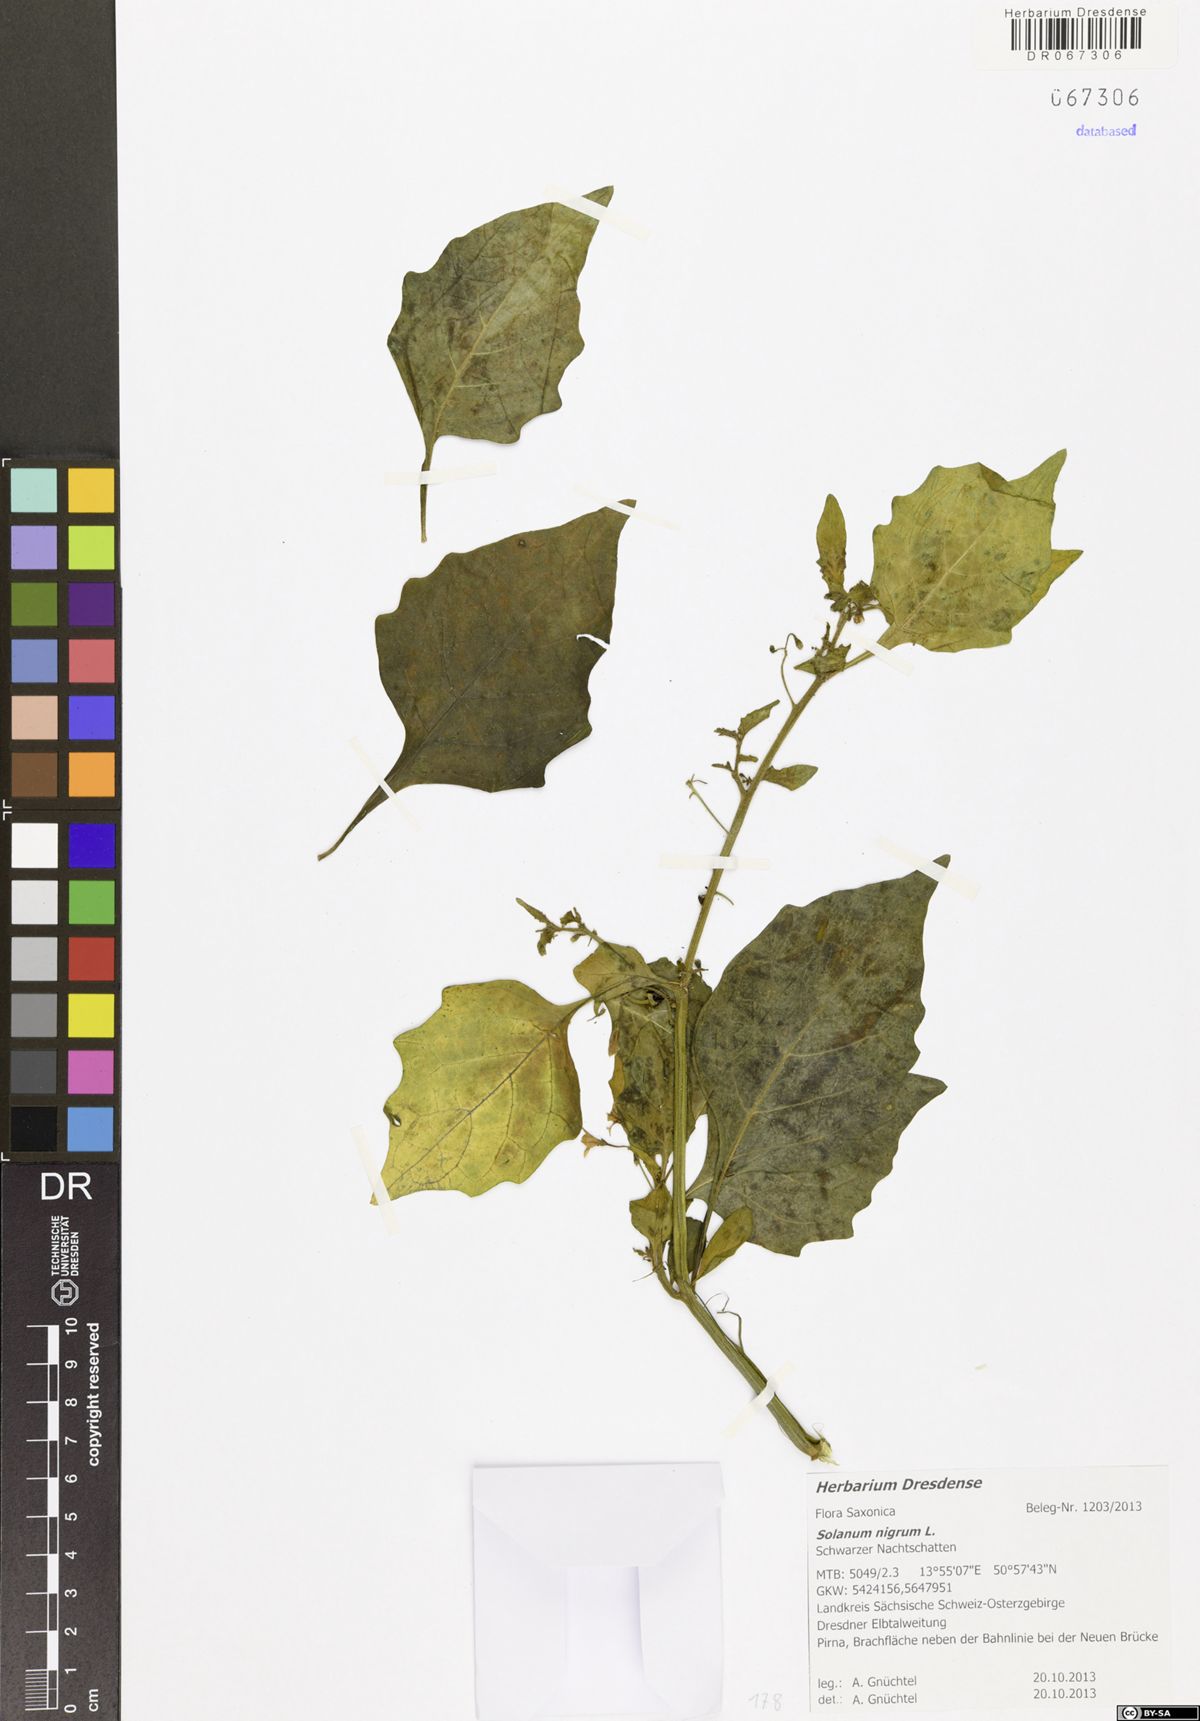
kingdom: Plantae
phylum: Tracheophyta
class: Magnoliopsida
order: Solanales
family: Solanaceae
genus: Solanum
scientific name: Solanum nigrum
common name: Black nightshade
